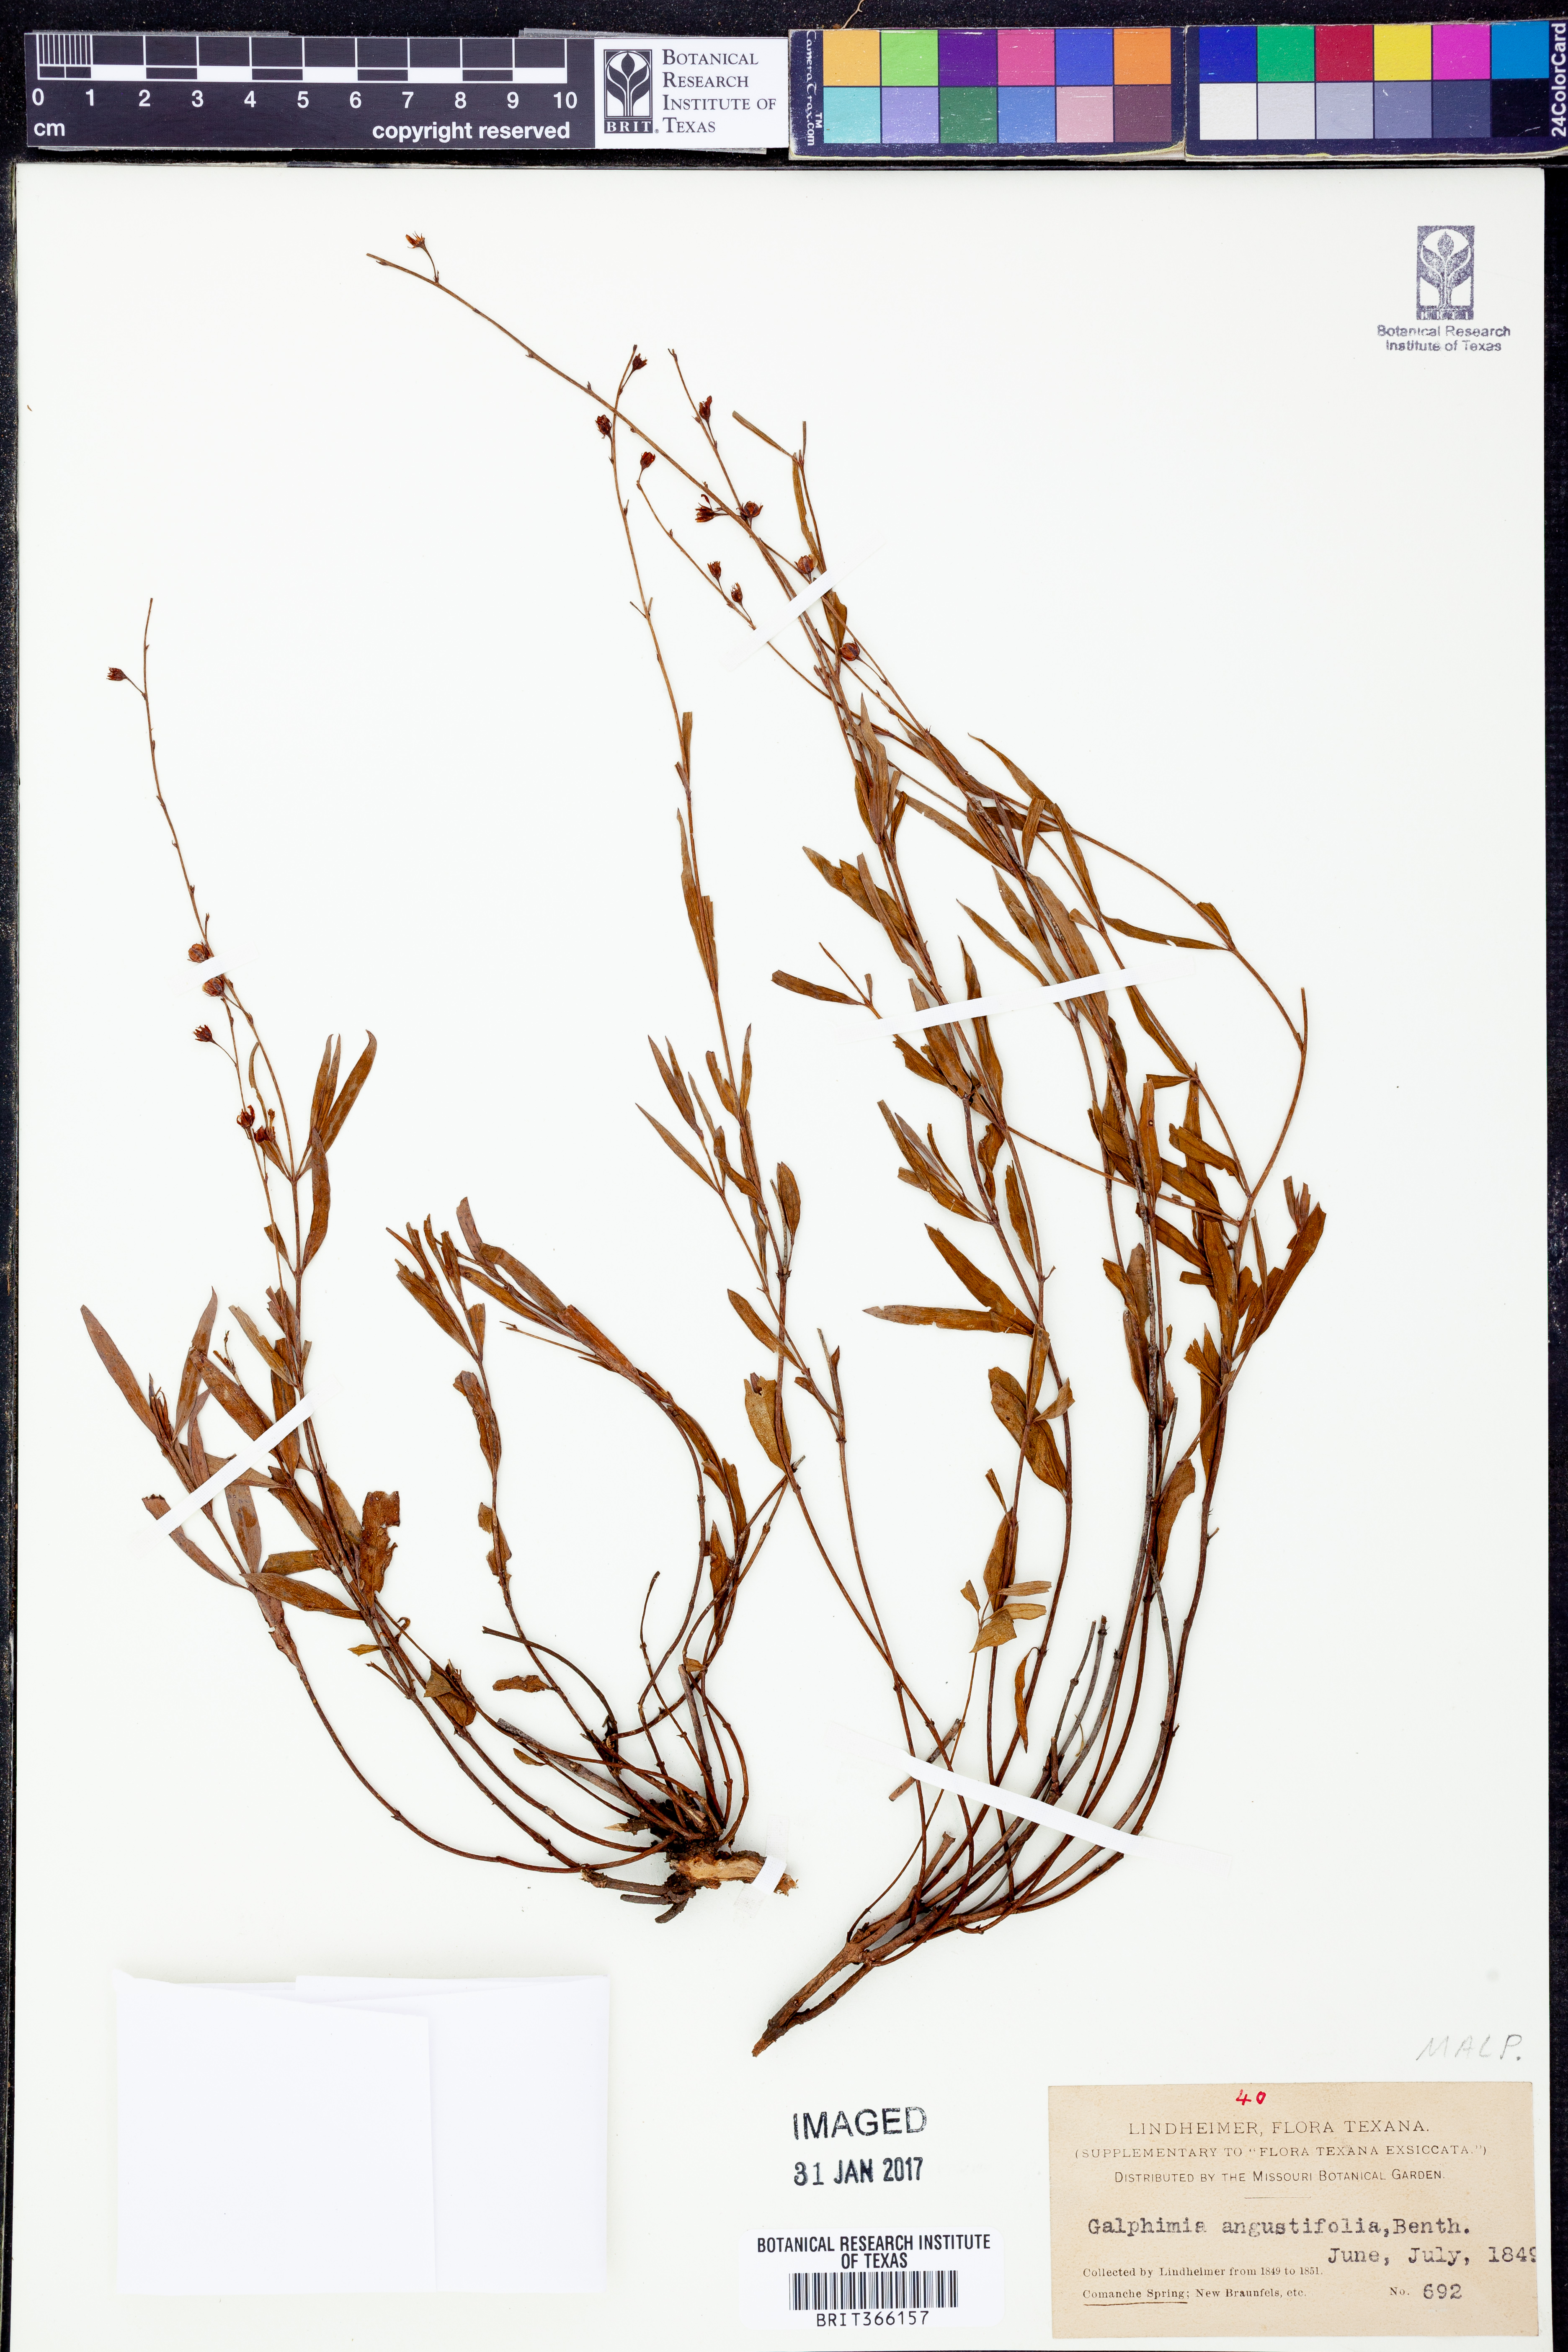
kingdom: Plantae
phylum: Tracheophyta
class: Magnoliopsida
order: Malpighiales
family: Malpighiaceae
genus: Galphimia
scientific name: Galphimia angustifolia
